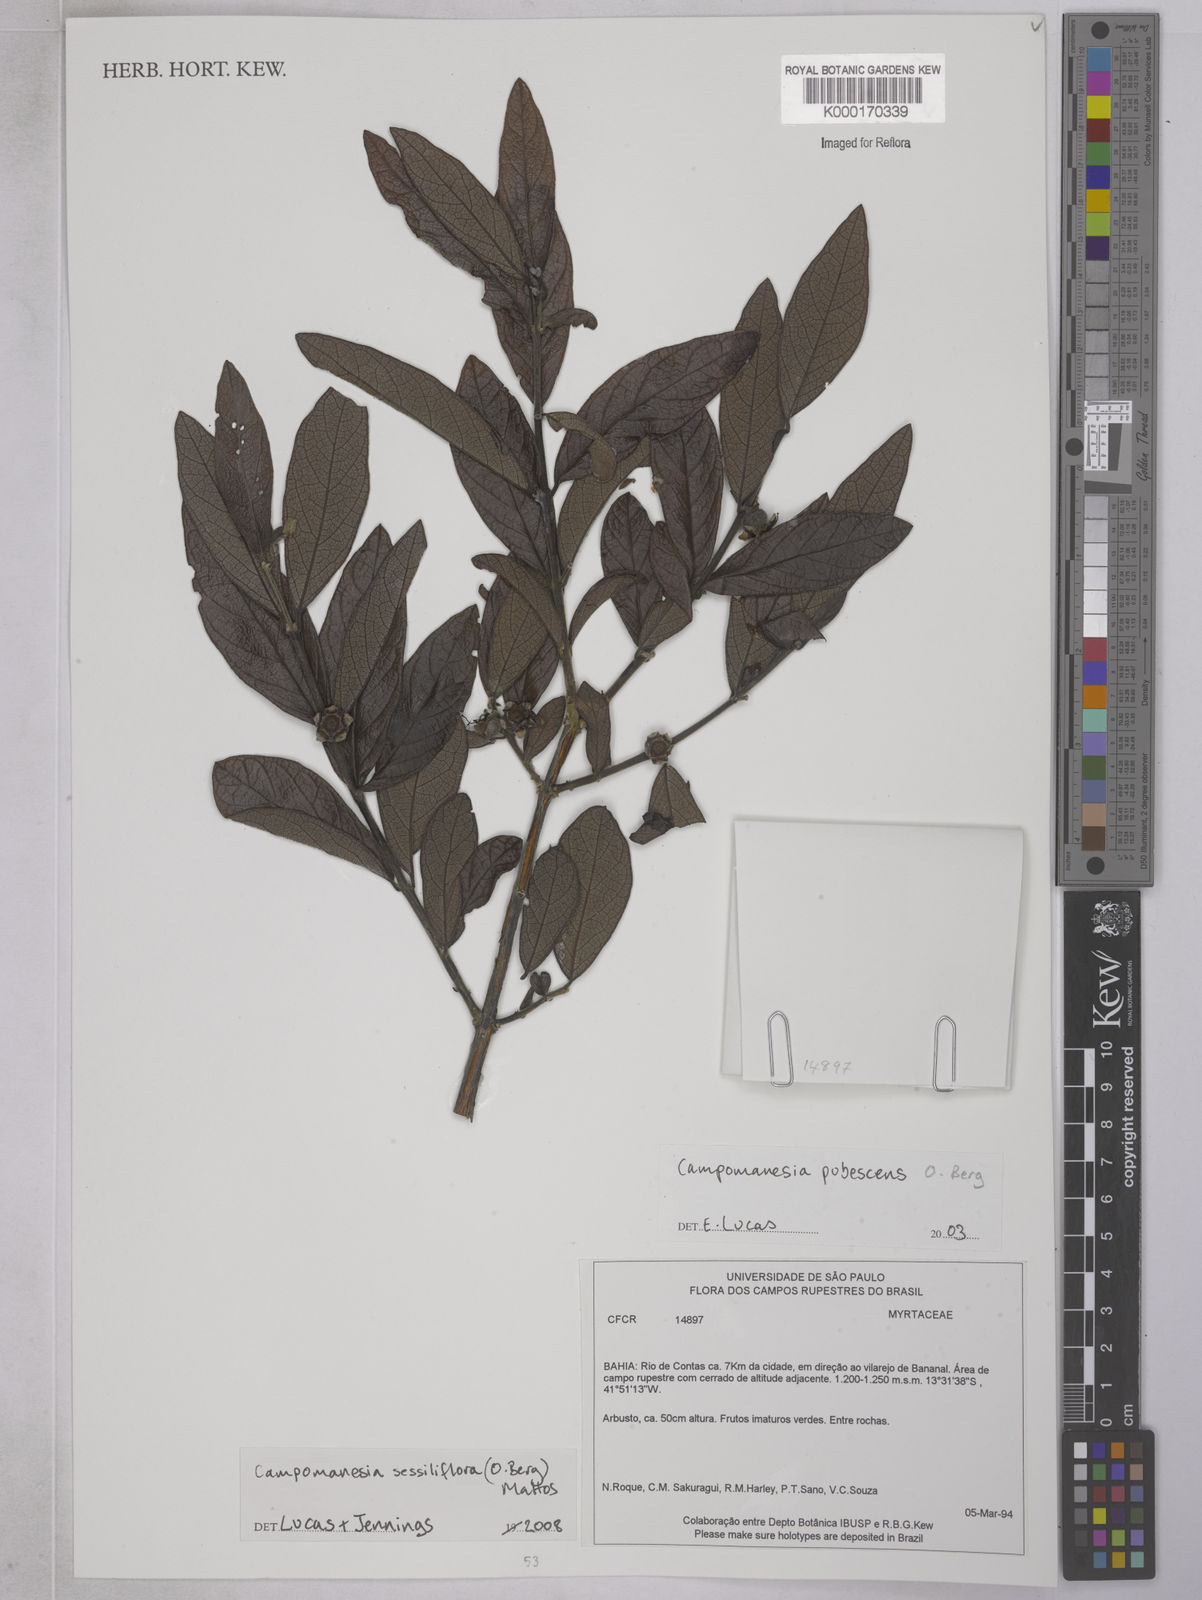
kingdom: Plantae
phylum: Tracheophyta
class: Magnoliopsida
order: Myrtales
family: Myrtaceae
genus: Campomanesia
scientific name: Campomanesia sessiliflora
